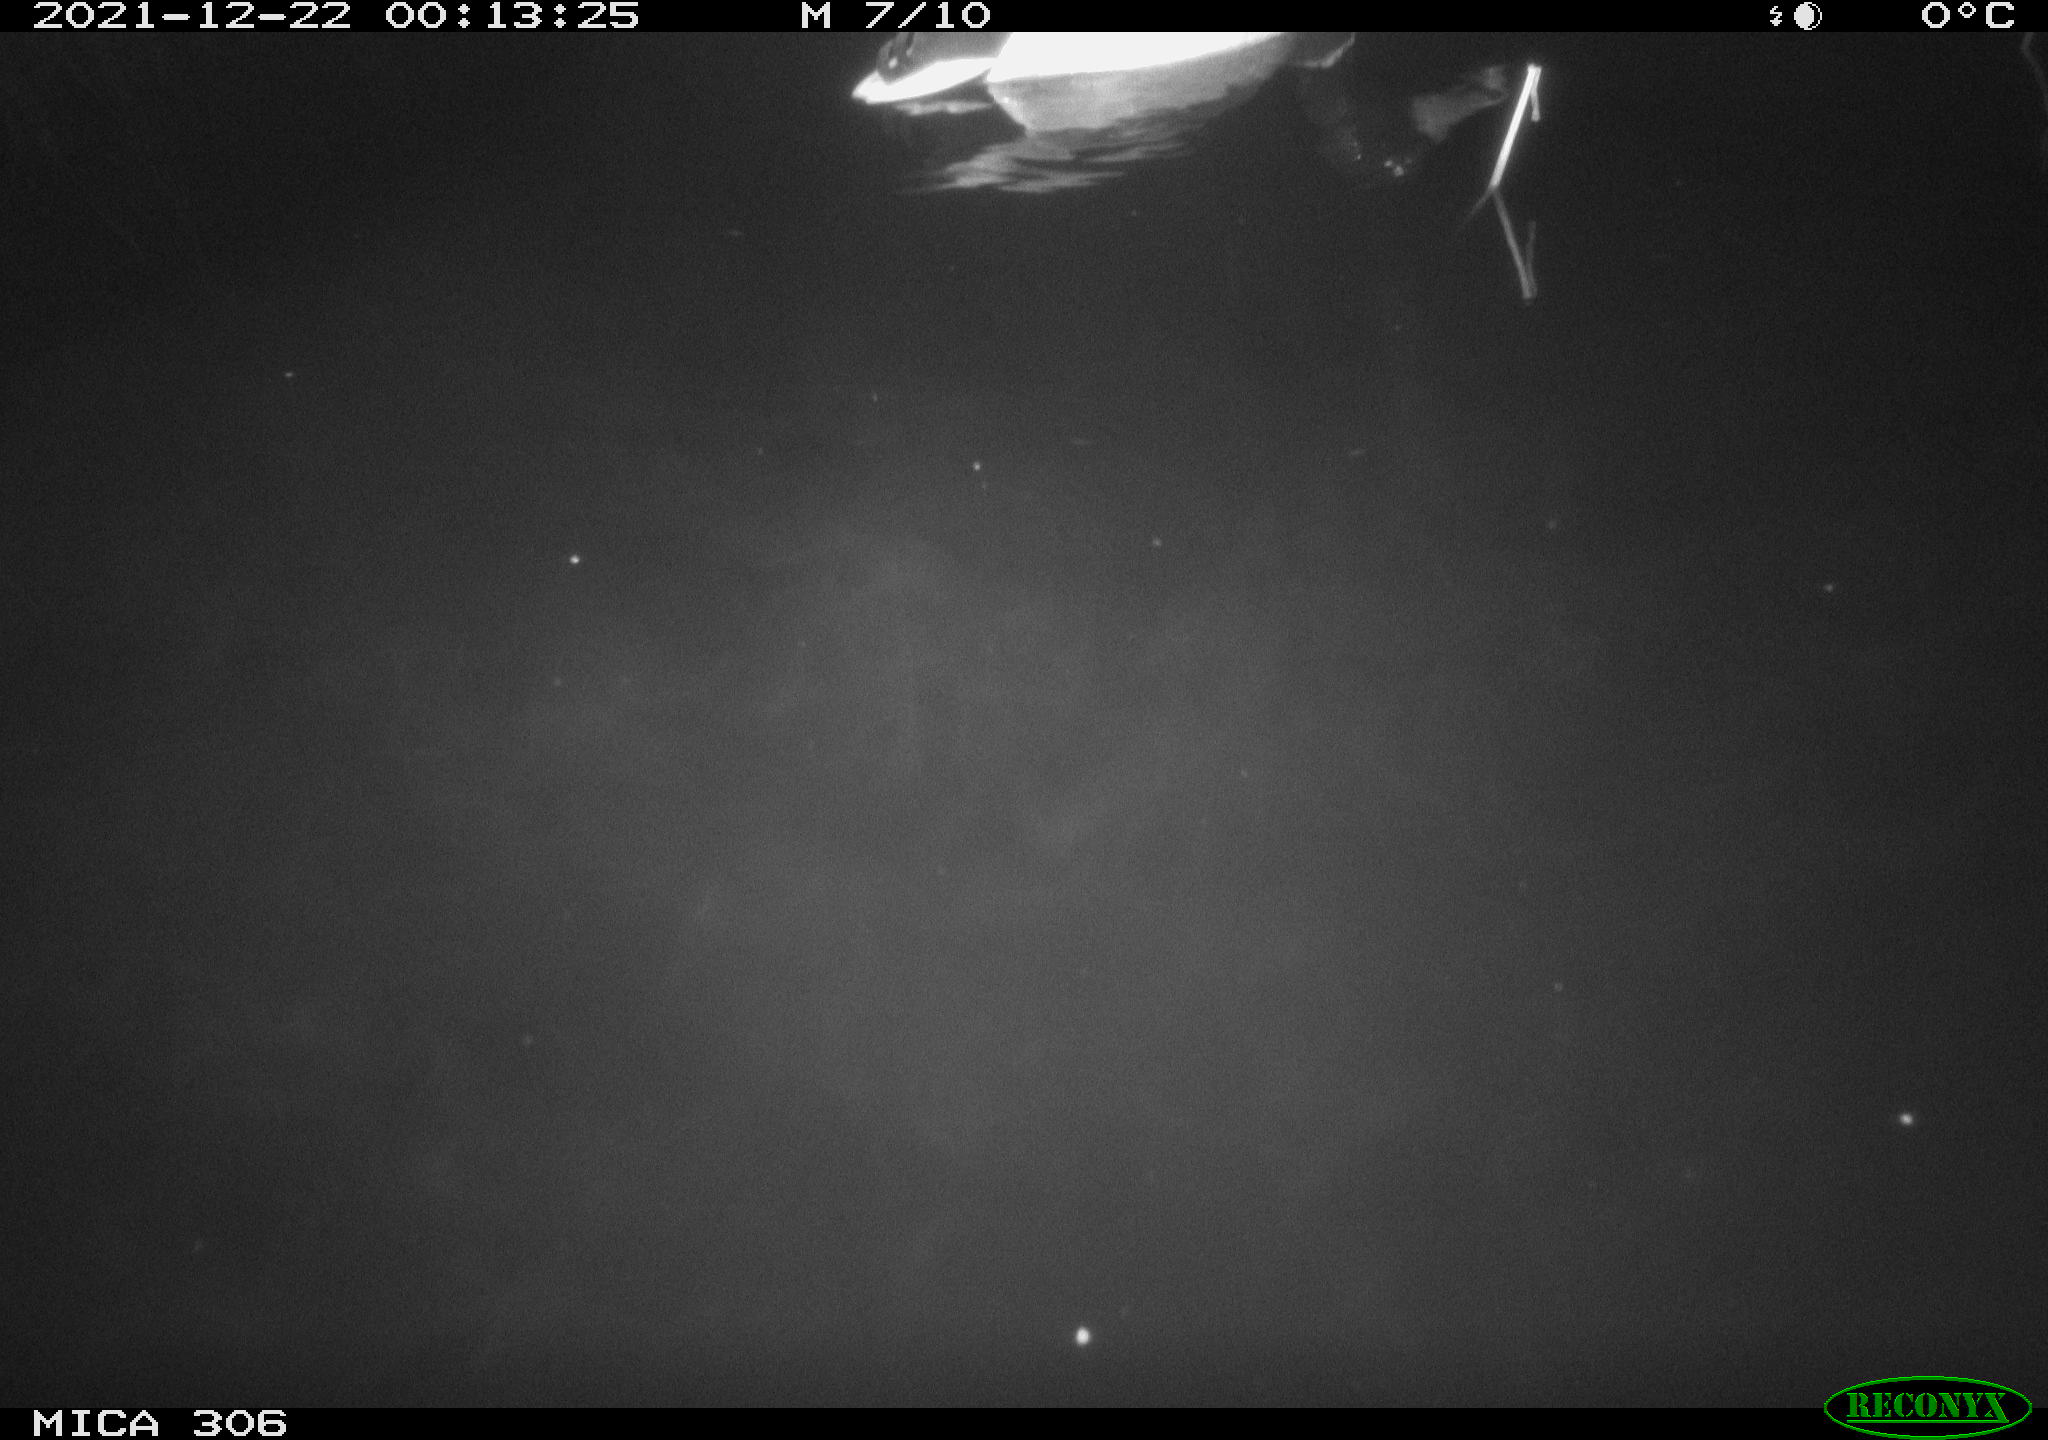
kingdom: Animalia
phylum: Chordata
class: Aves
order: Anseriformes
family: Anatidae
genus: Anas
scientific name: Anas
